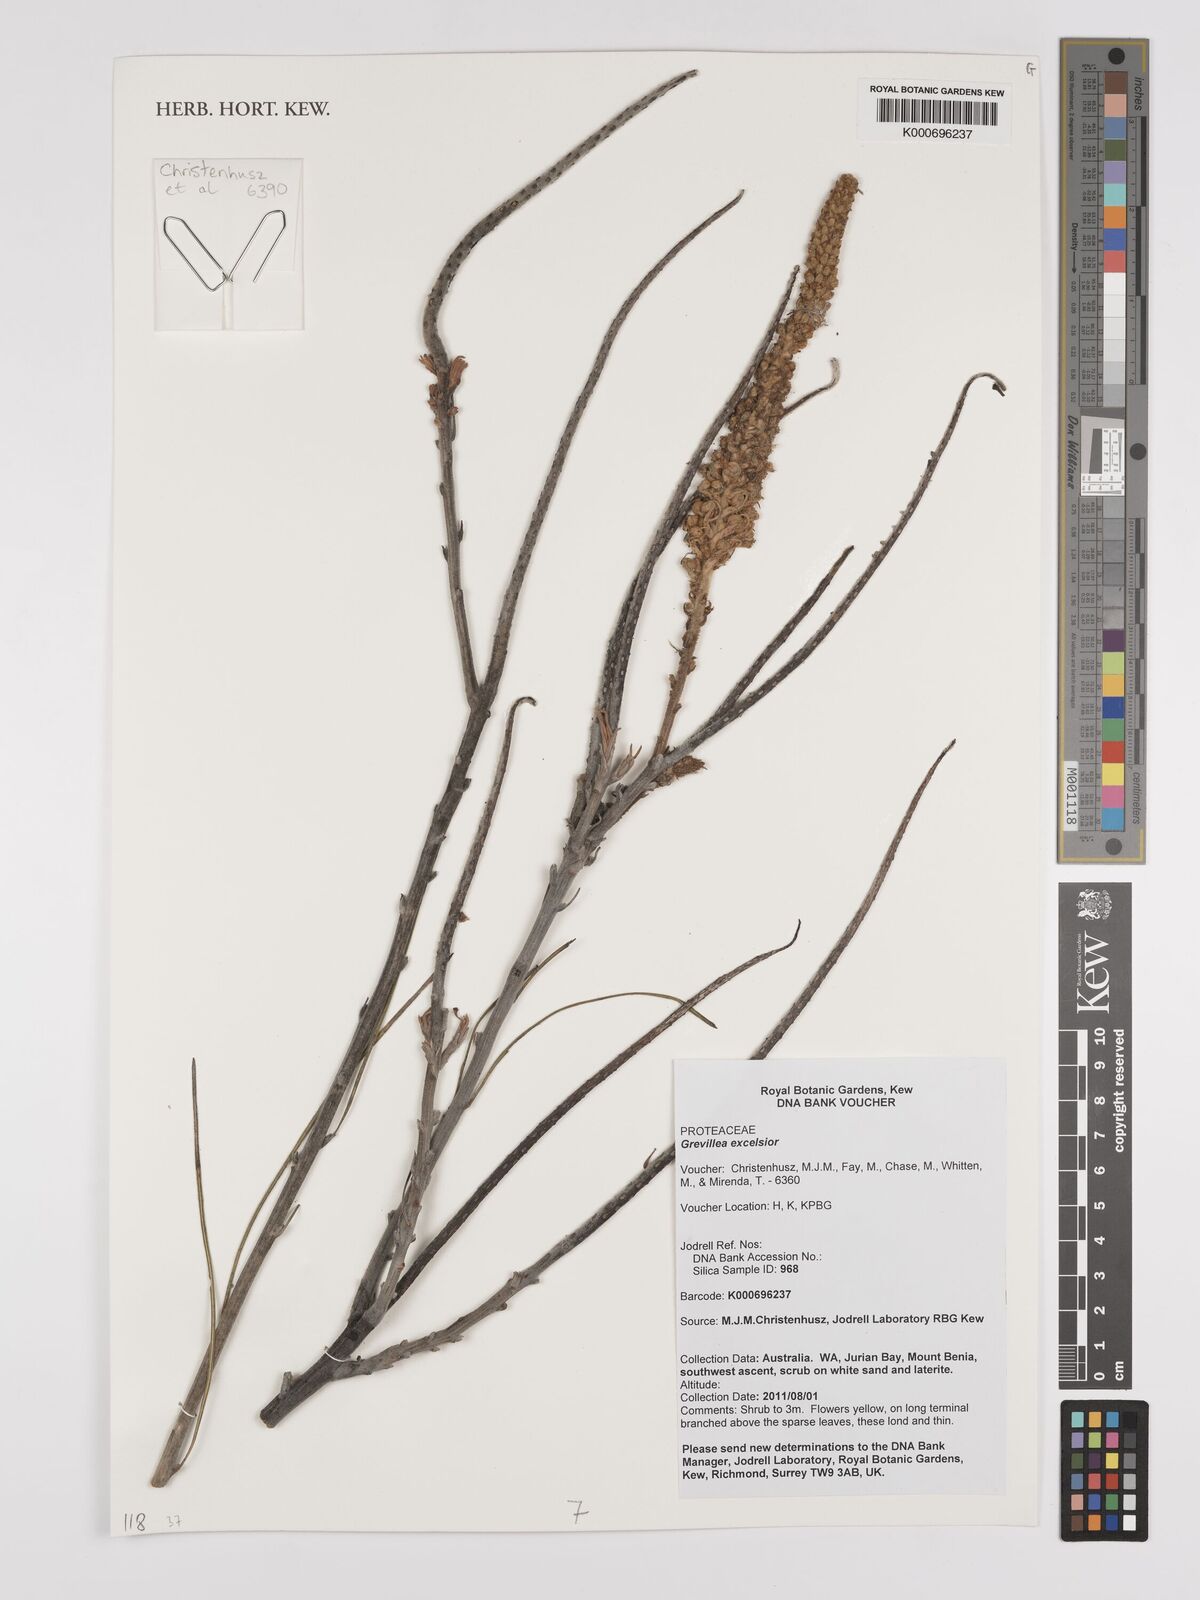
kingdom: Plantae
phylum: Tracheophyta
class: Magnoliopsida
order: Proteales
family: Proteaceae
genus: Grevillea
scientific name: Grevillea excelsior
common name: Orange flame grevillea
